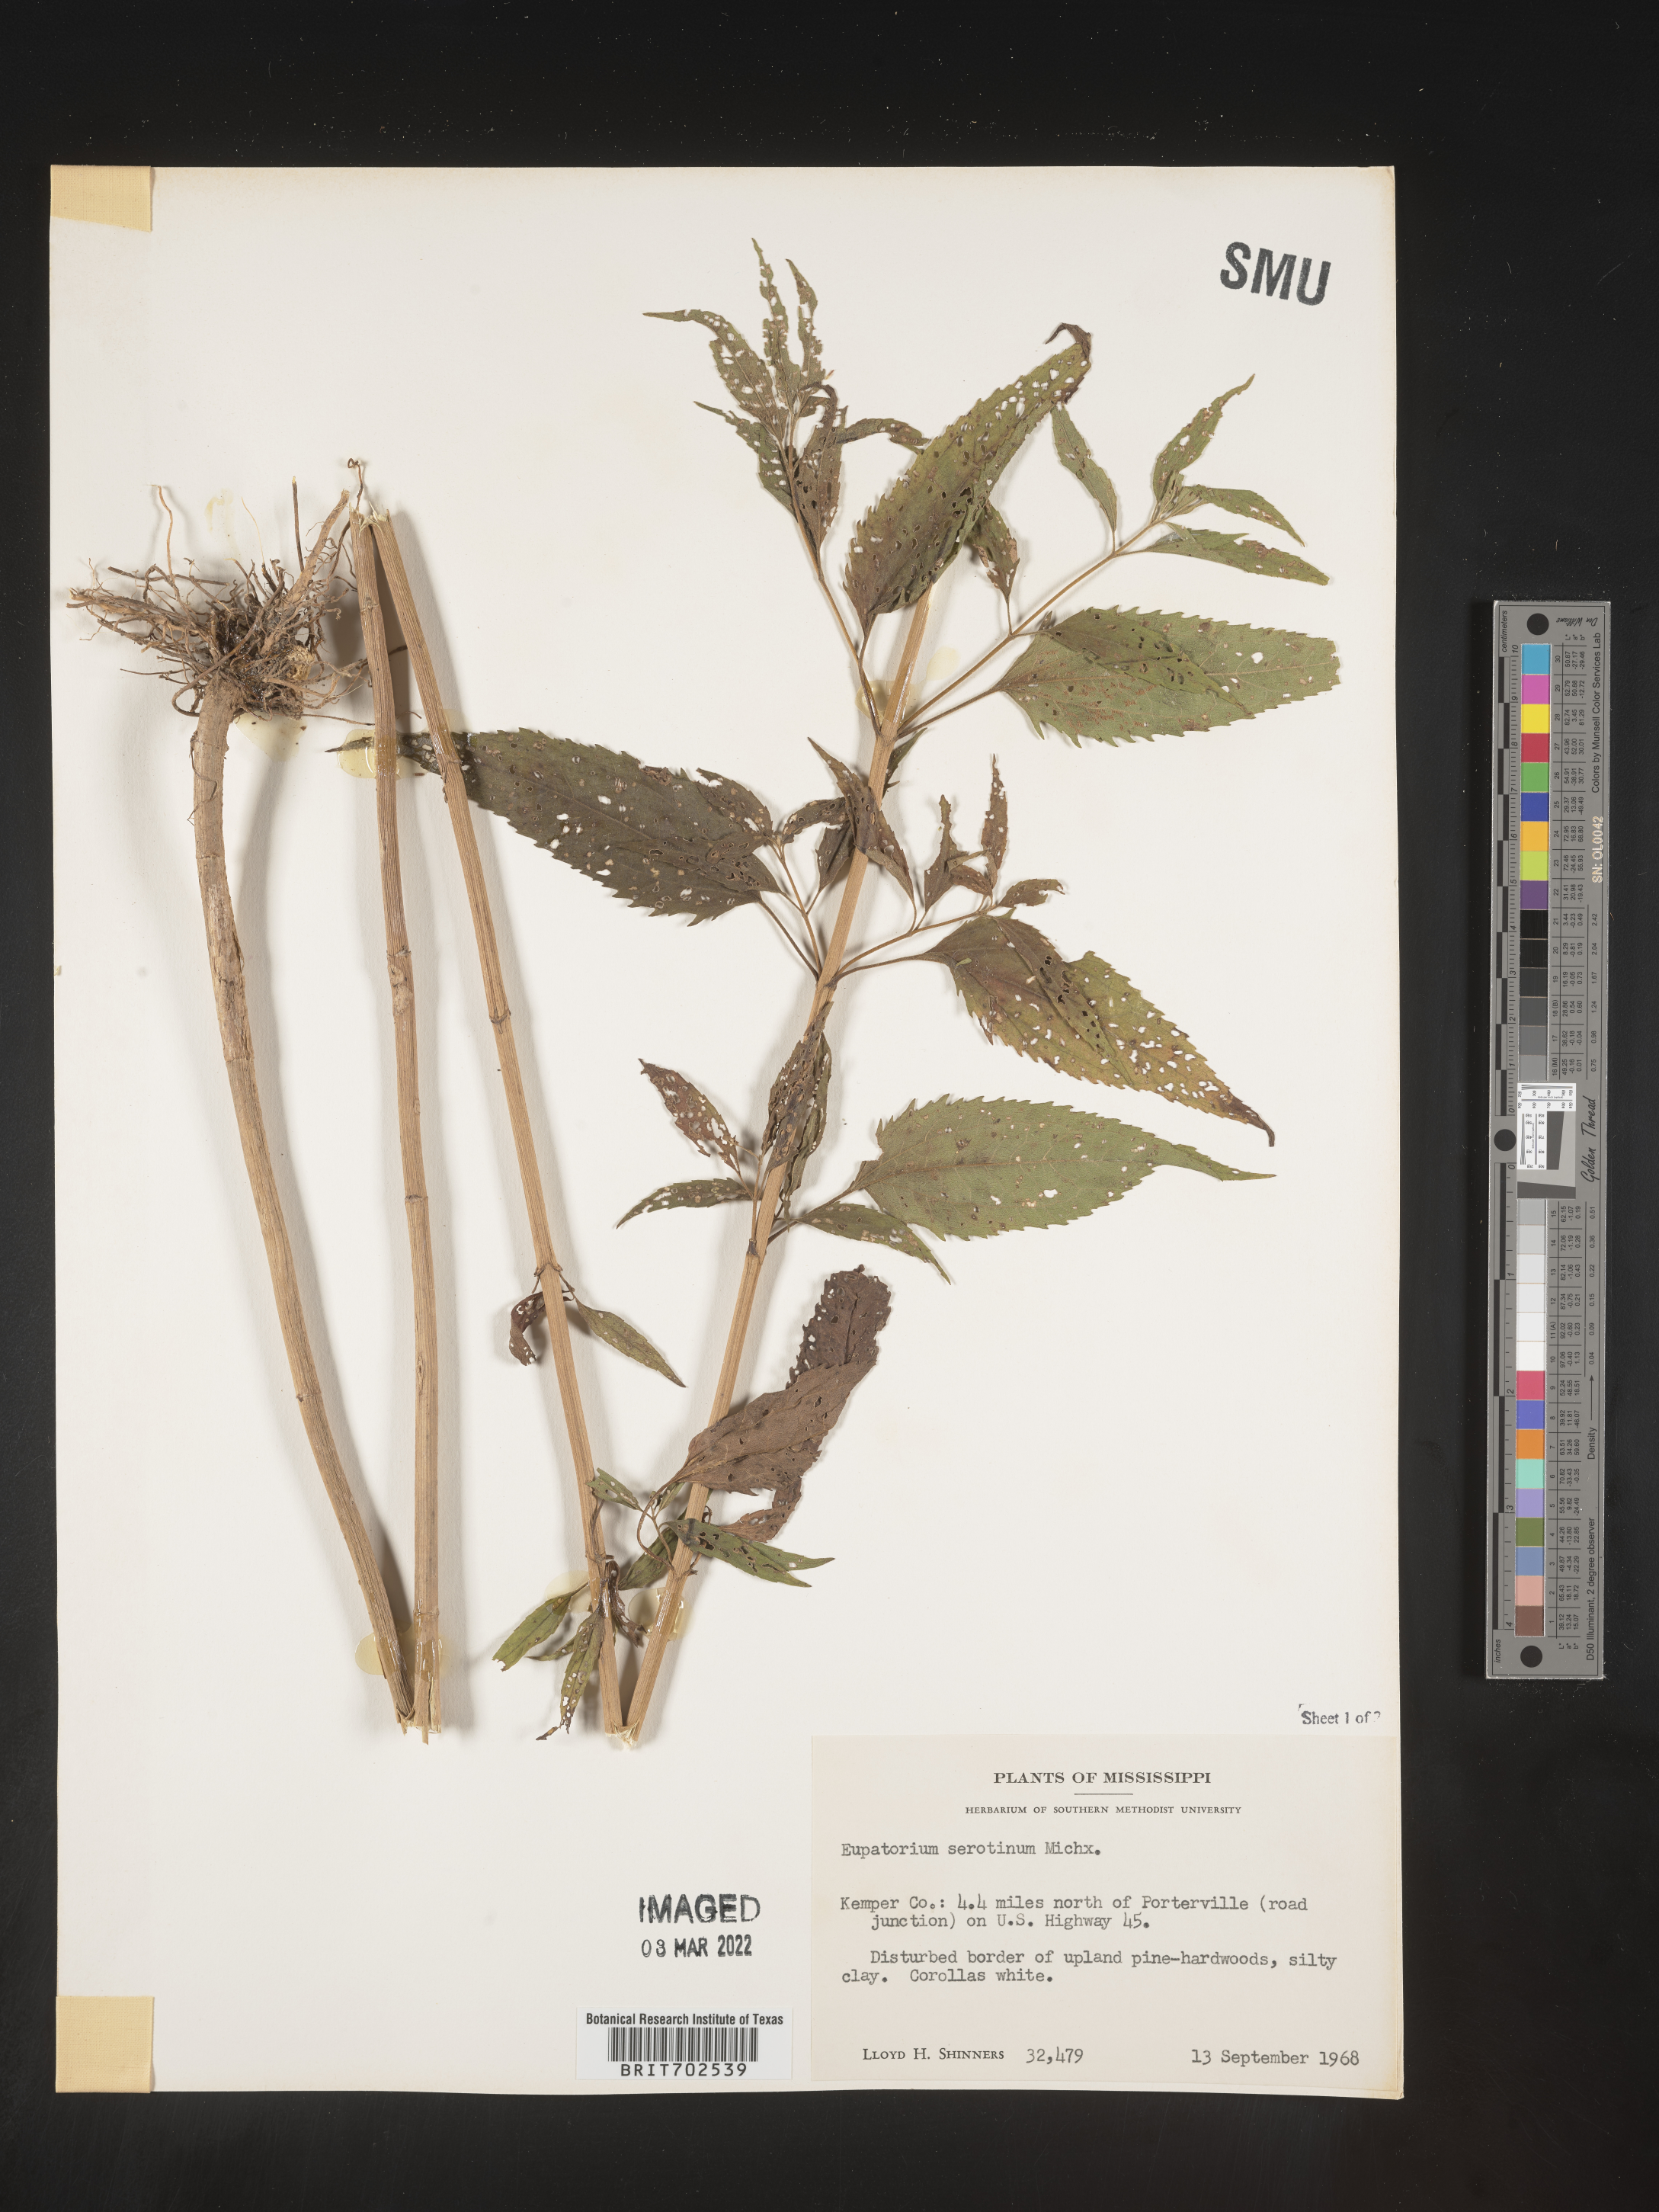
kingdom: Plantae
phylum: Tracheophyta
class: Magnoliopsida
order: Asterales
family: Asteraceae
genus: Eupatorium
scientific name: Eupatorium serotinum
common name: Late boneset
